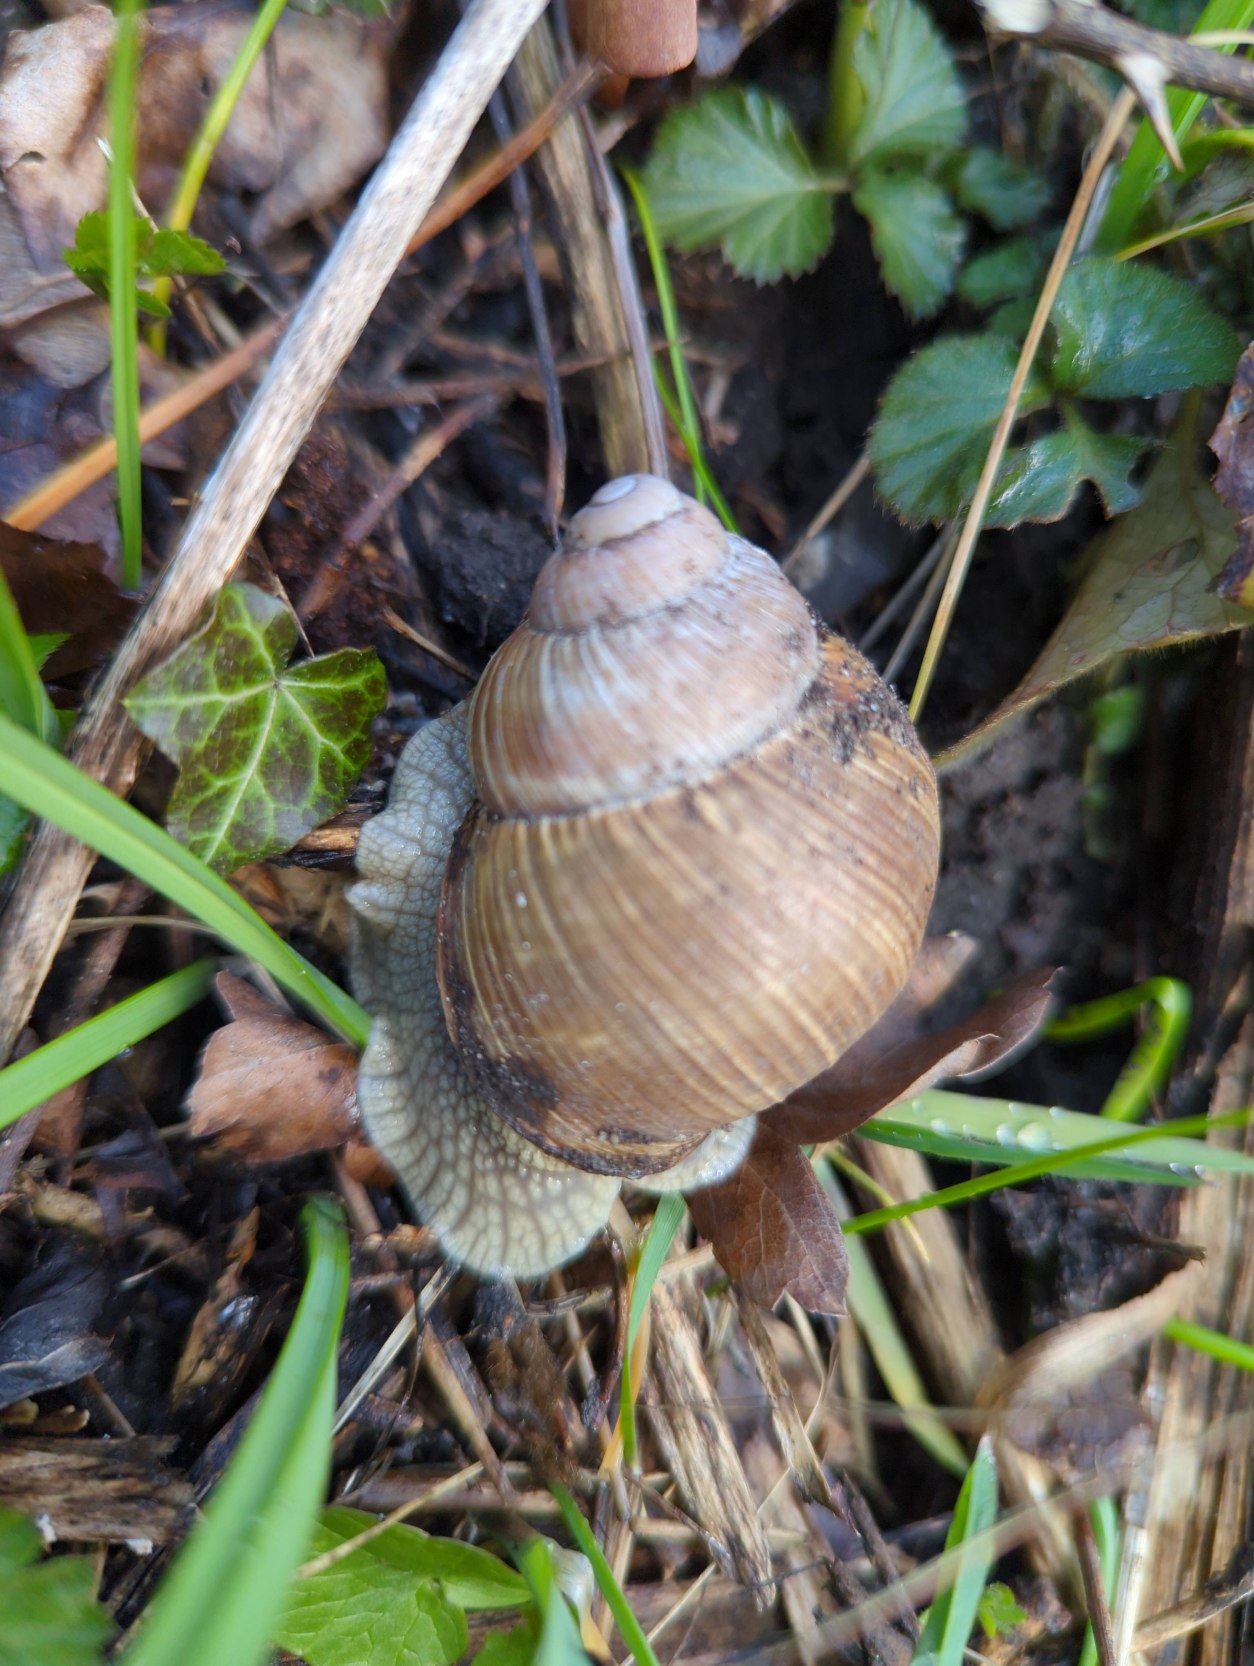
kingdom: Animalia
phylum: Mollusca
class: Gastropoda
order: Stylommatophora
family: Helicidae
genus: Helix
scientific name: Helix pomatia
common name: Vinbjergsnegl
